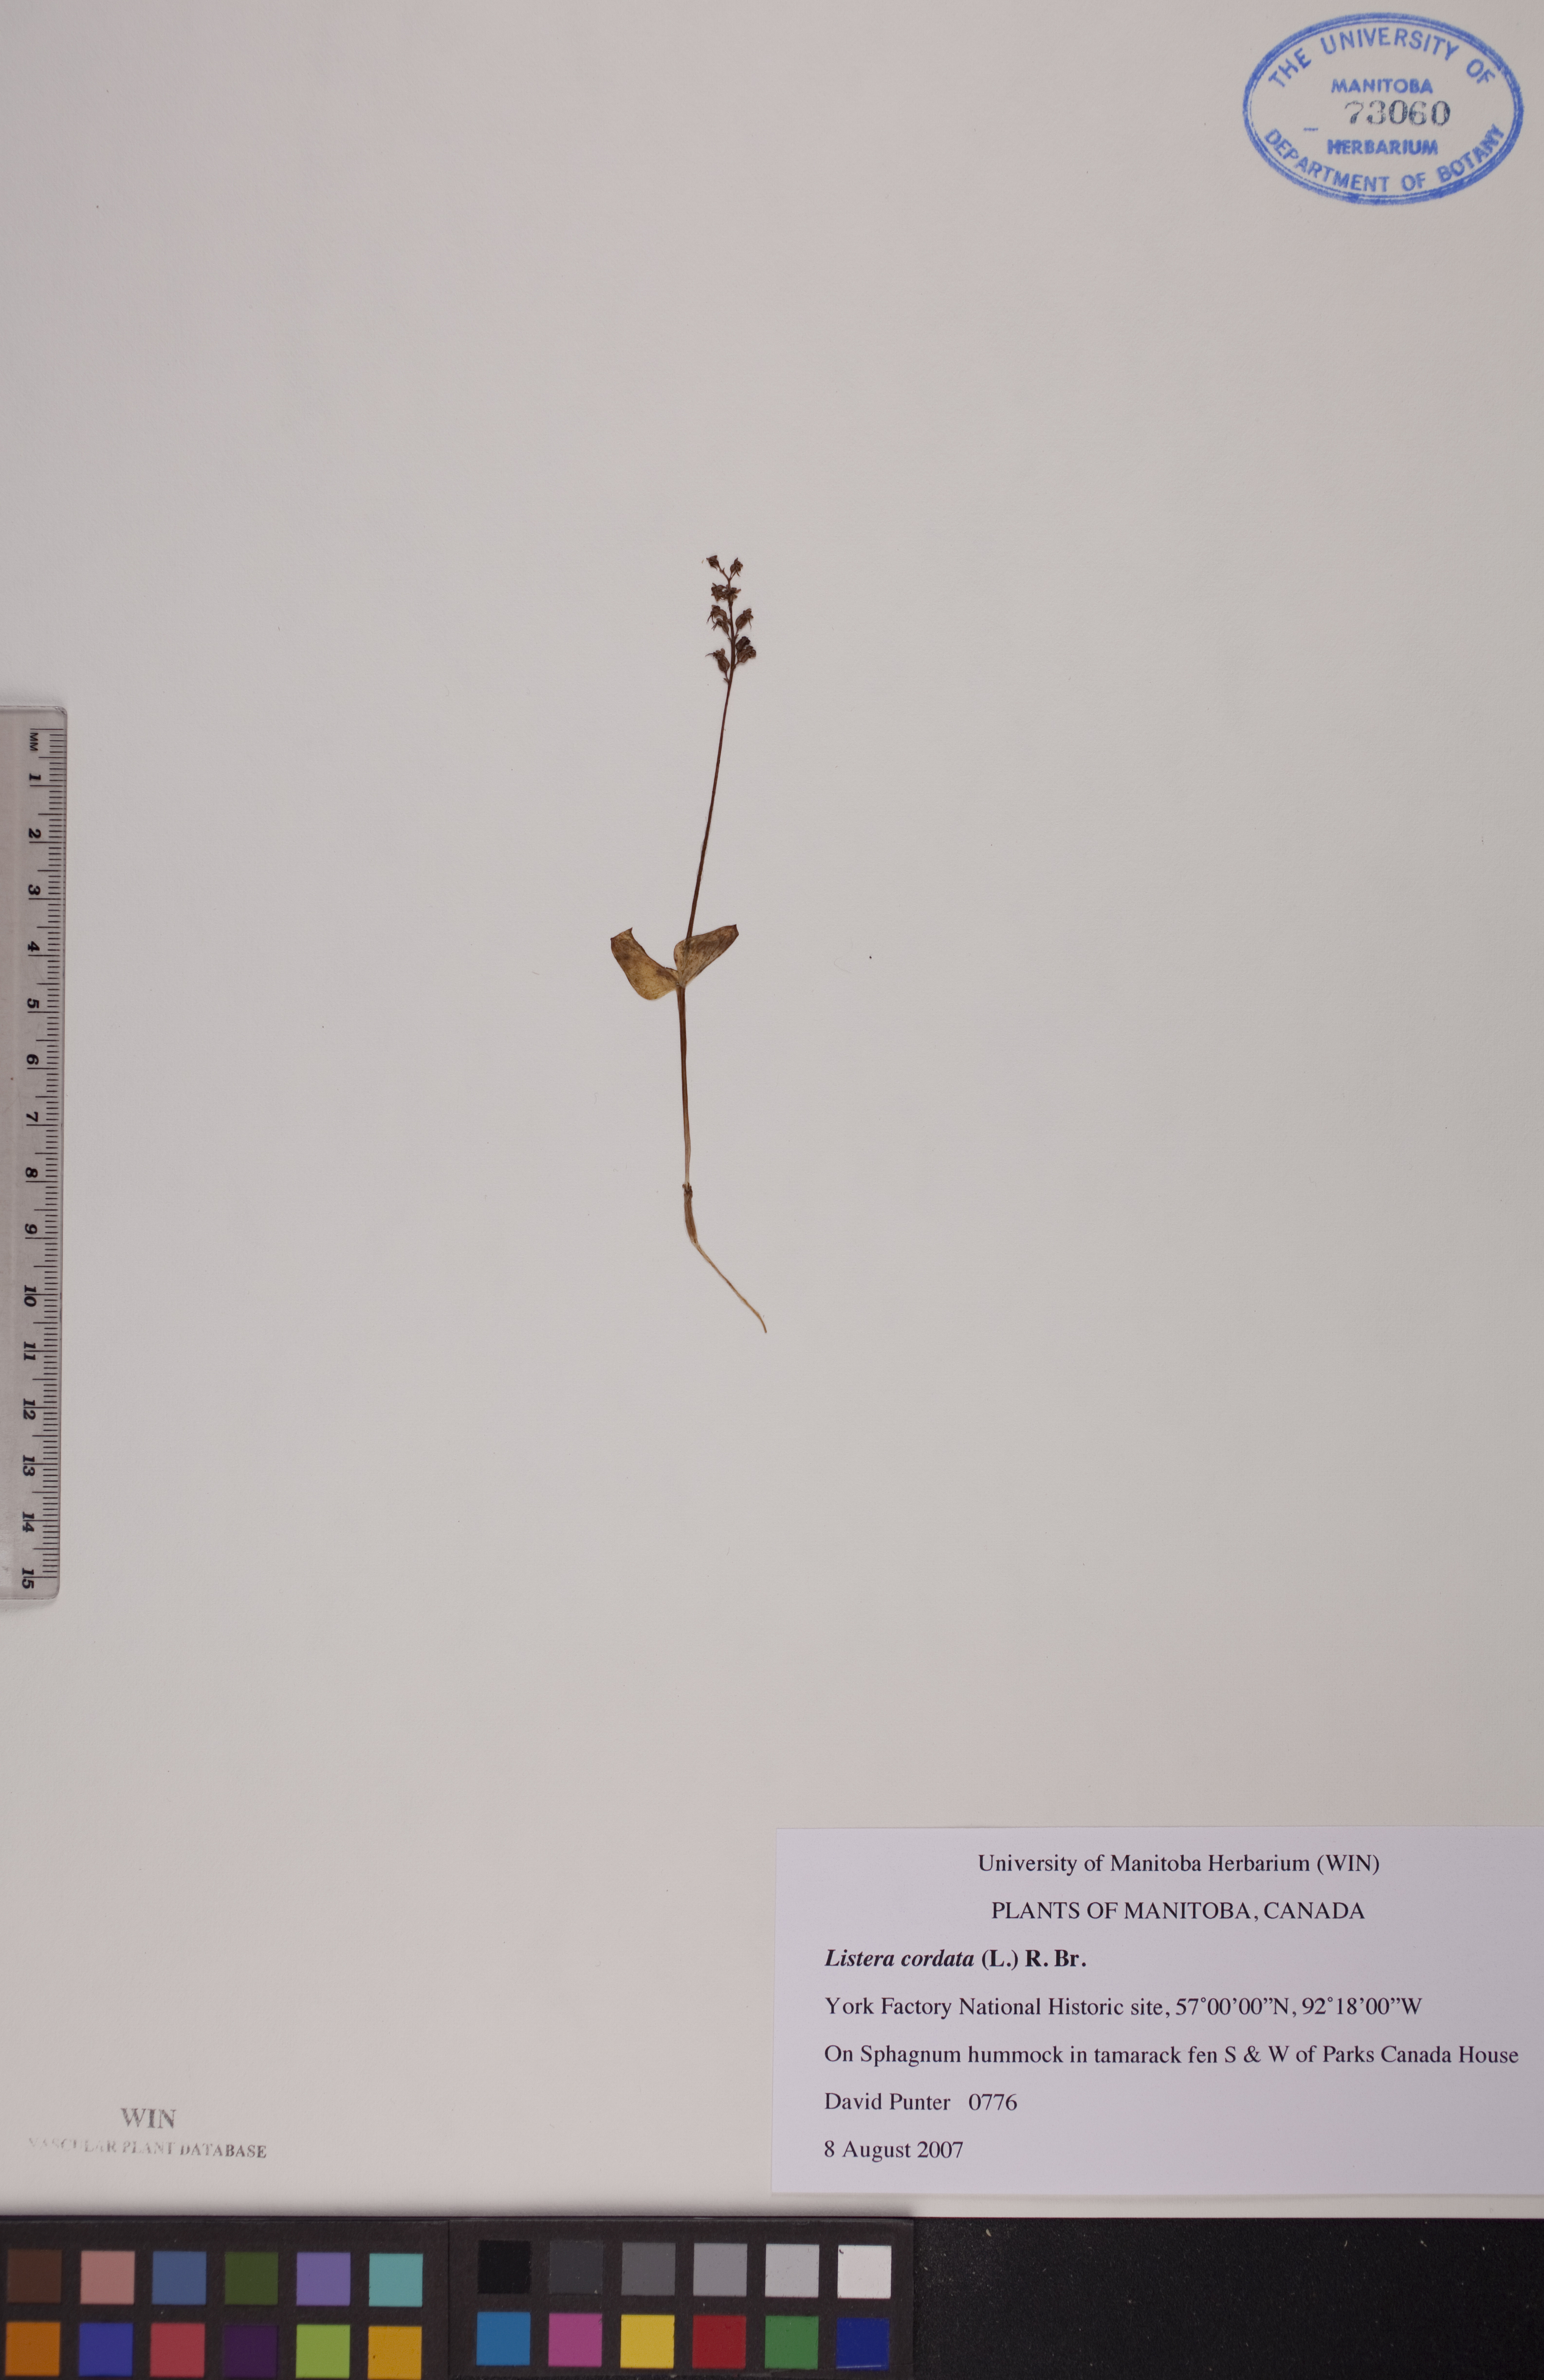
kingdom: Plantae
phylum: Tracheophyta
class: Liliopsida
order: Asparagales
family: Orchidaceae
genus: Neottia
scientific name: Neottia cordata
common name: Lesser twayblade
